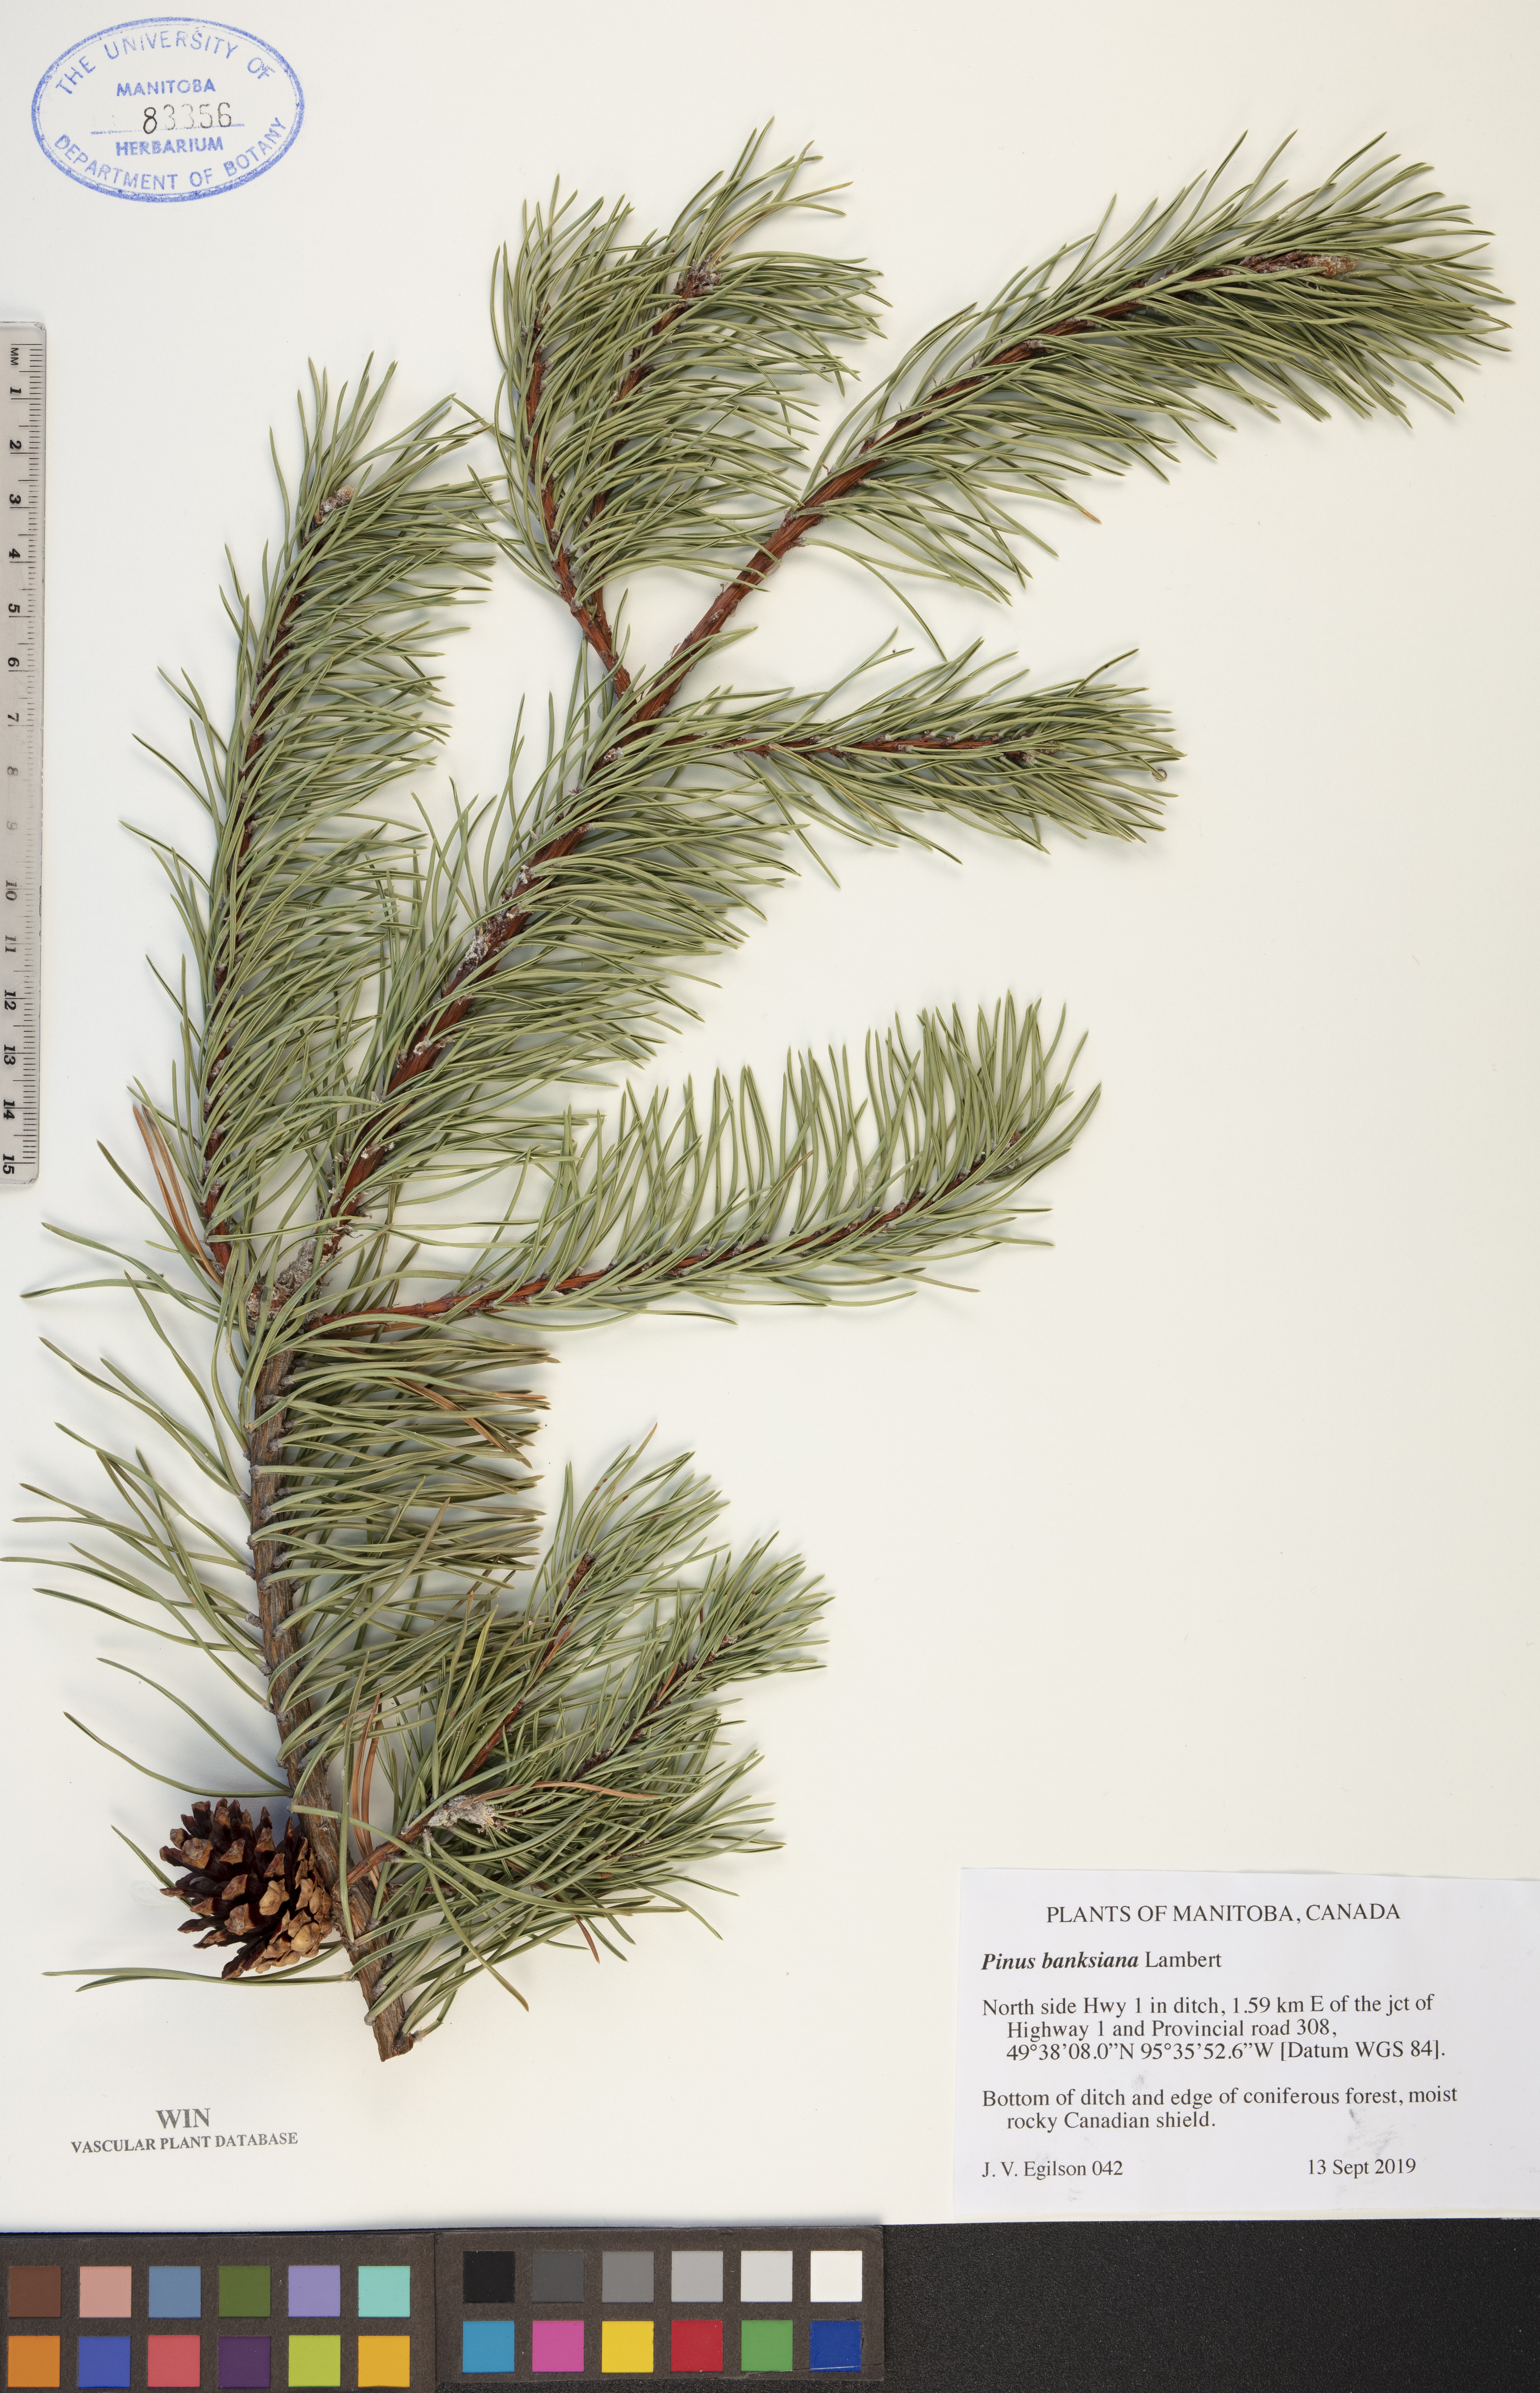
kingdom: Plantae
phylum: Tracheophyta
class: Pinopsida
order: Pinales
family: Pinaceae
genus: Pinus
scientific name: Pinus banksiana
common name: Jack pine
